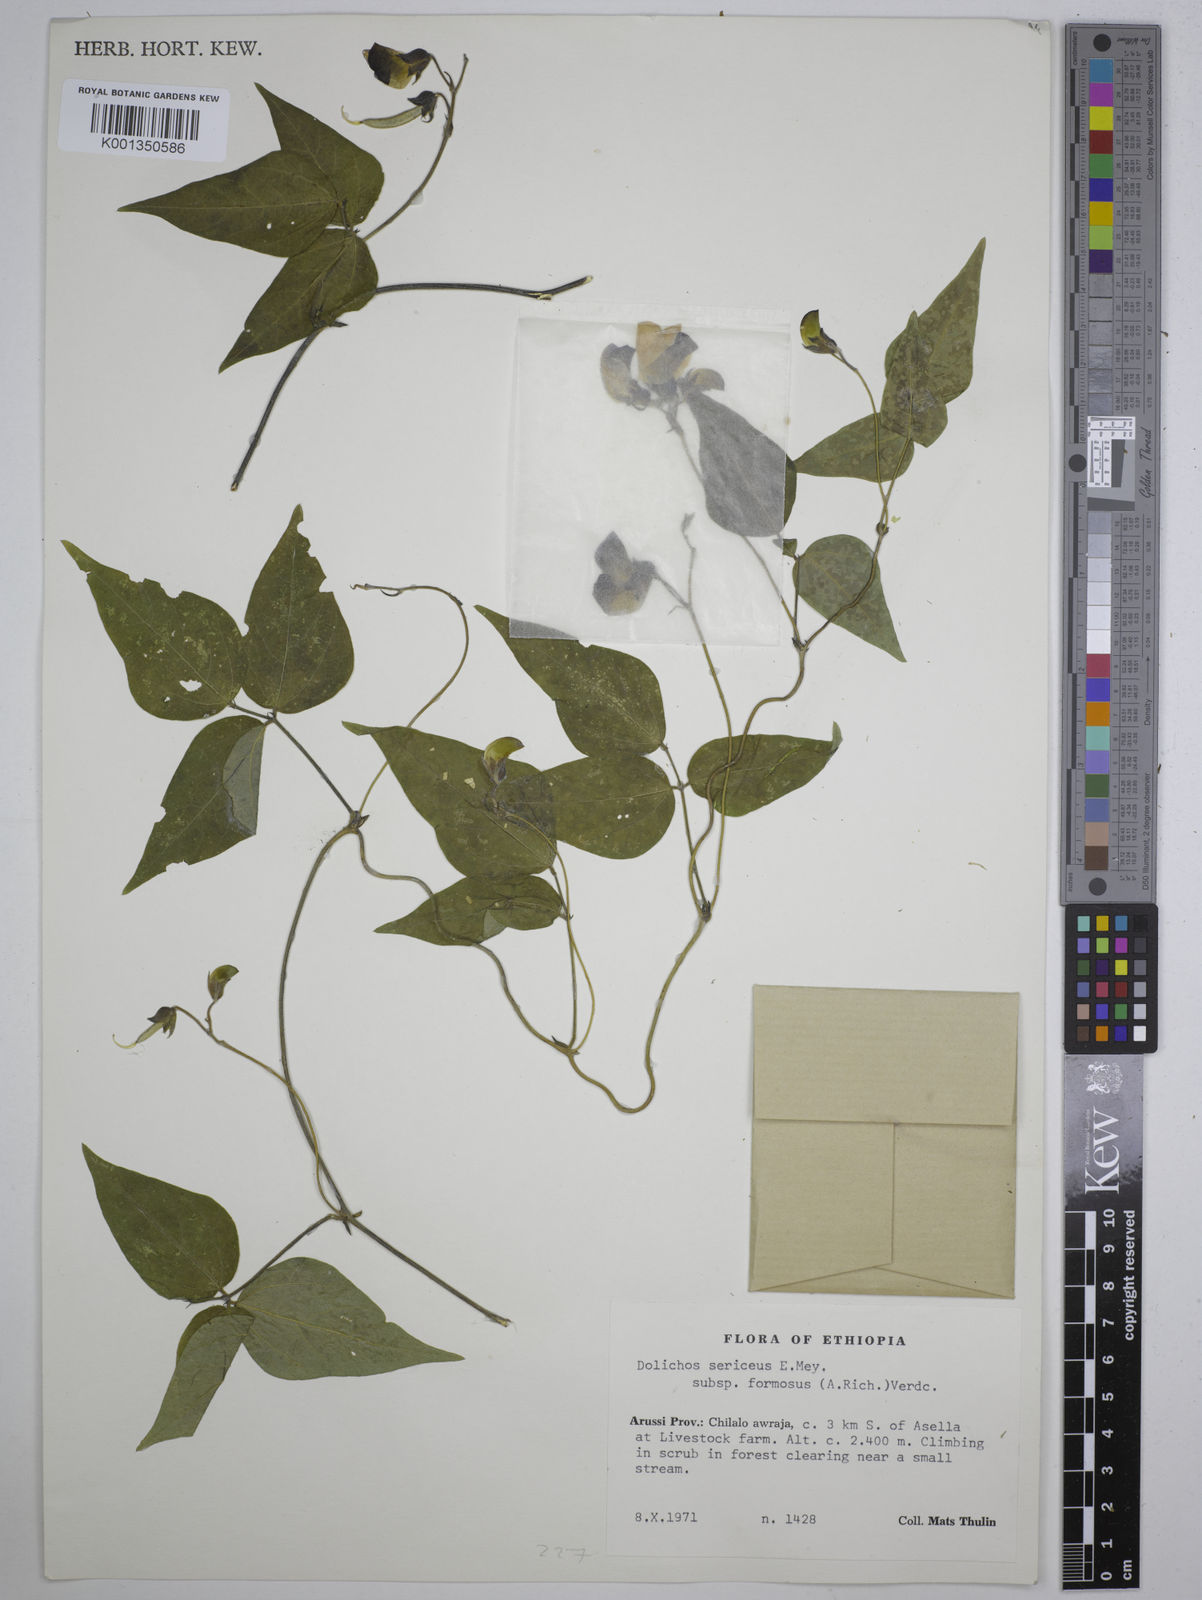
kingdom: Plantae
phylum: Tracheophyta
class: Magnoliopsida
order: Fabales
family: Fabaceae
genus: Dolichos
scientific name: Dolichos
